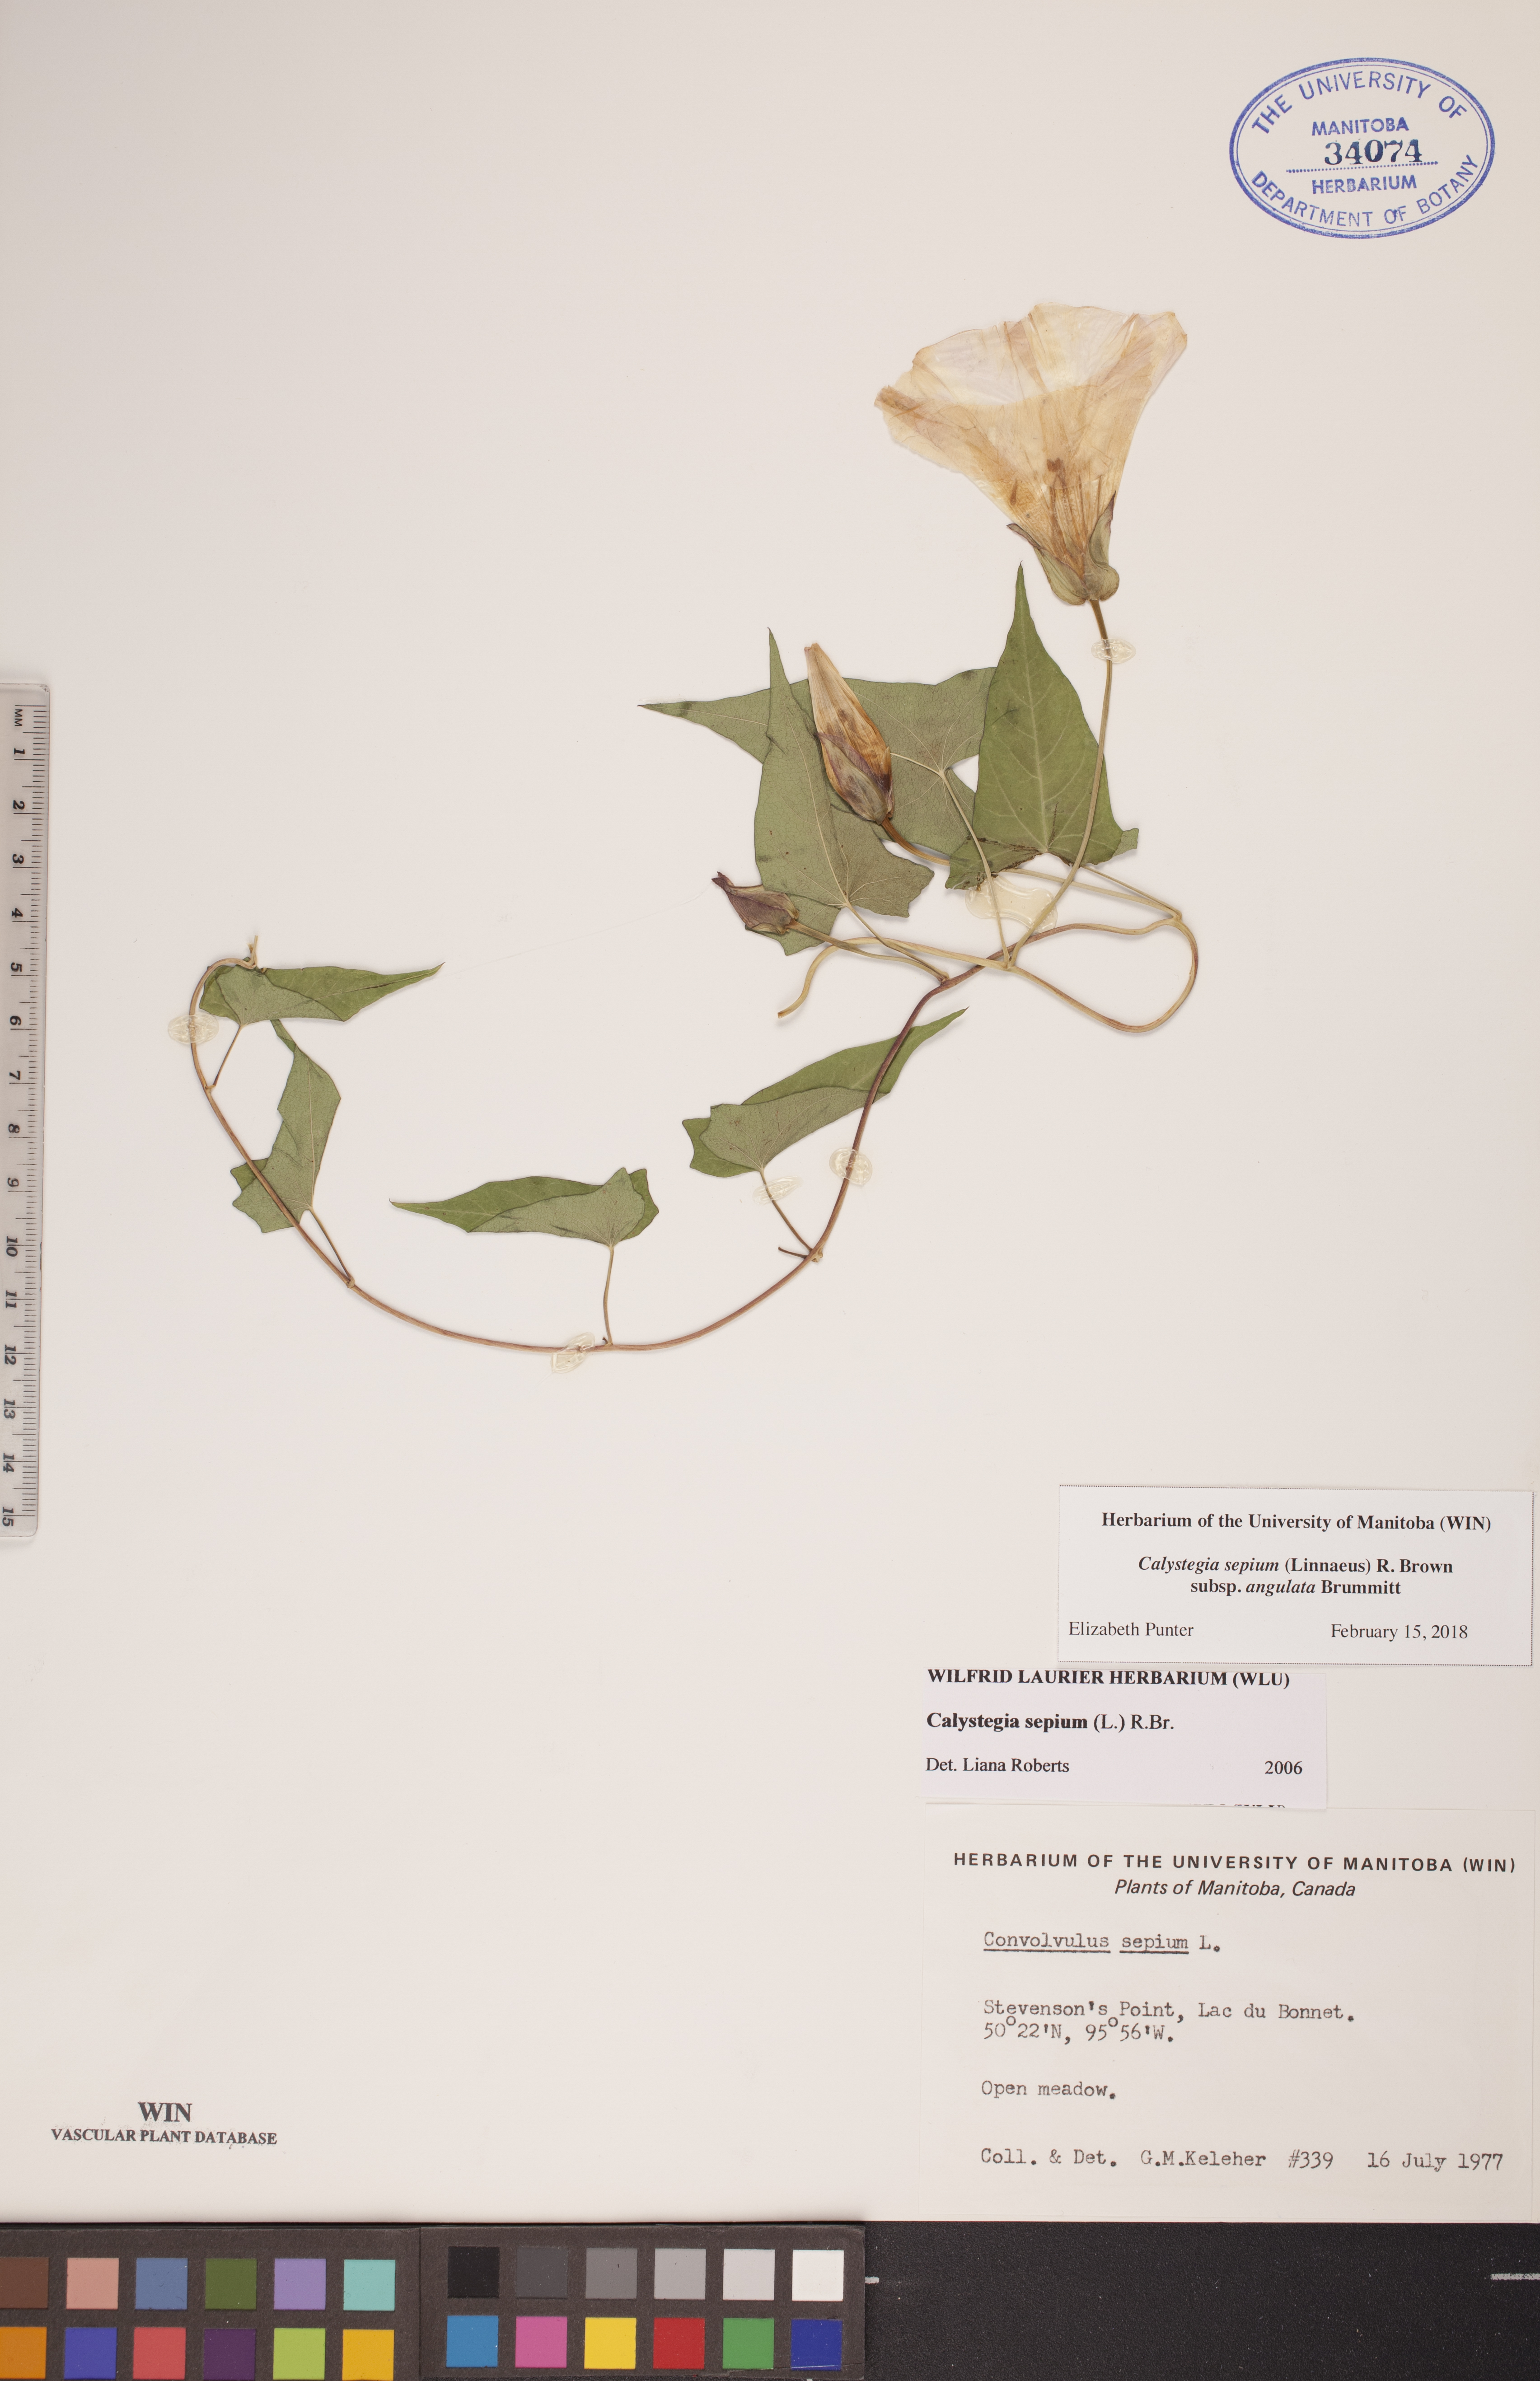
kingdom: Plantae
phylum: Tracheophyta
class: Magnoliopsida
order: Solanales
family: Convolvulaceae
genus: Convolvulus
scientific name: Convolvulus sepium
